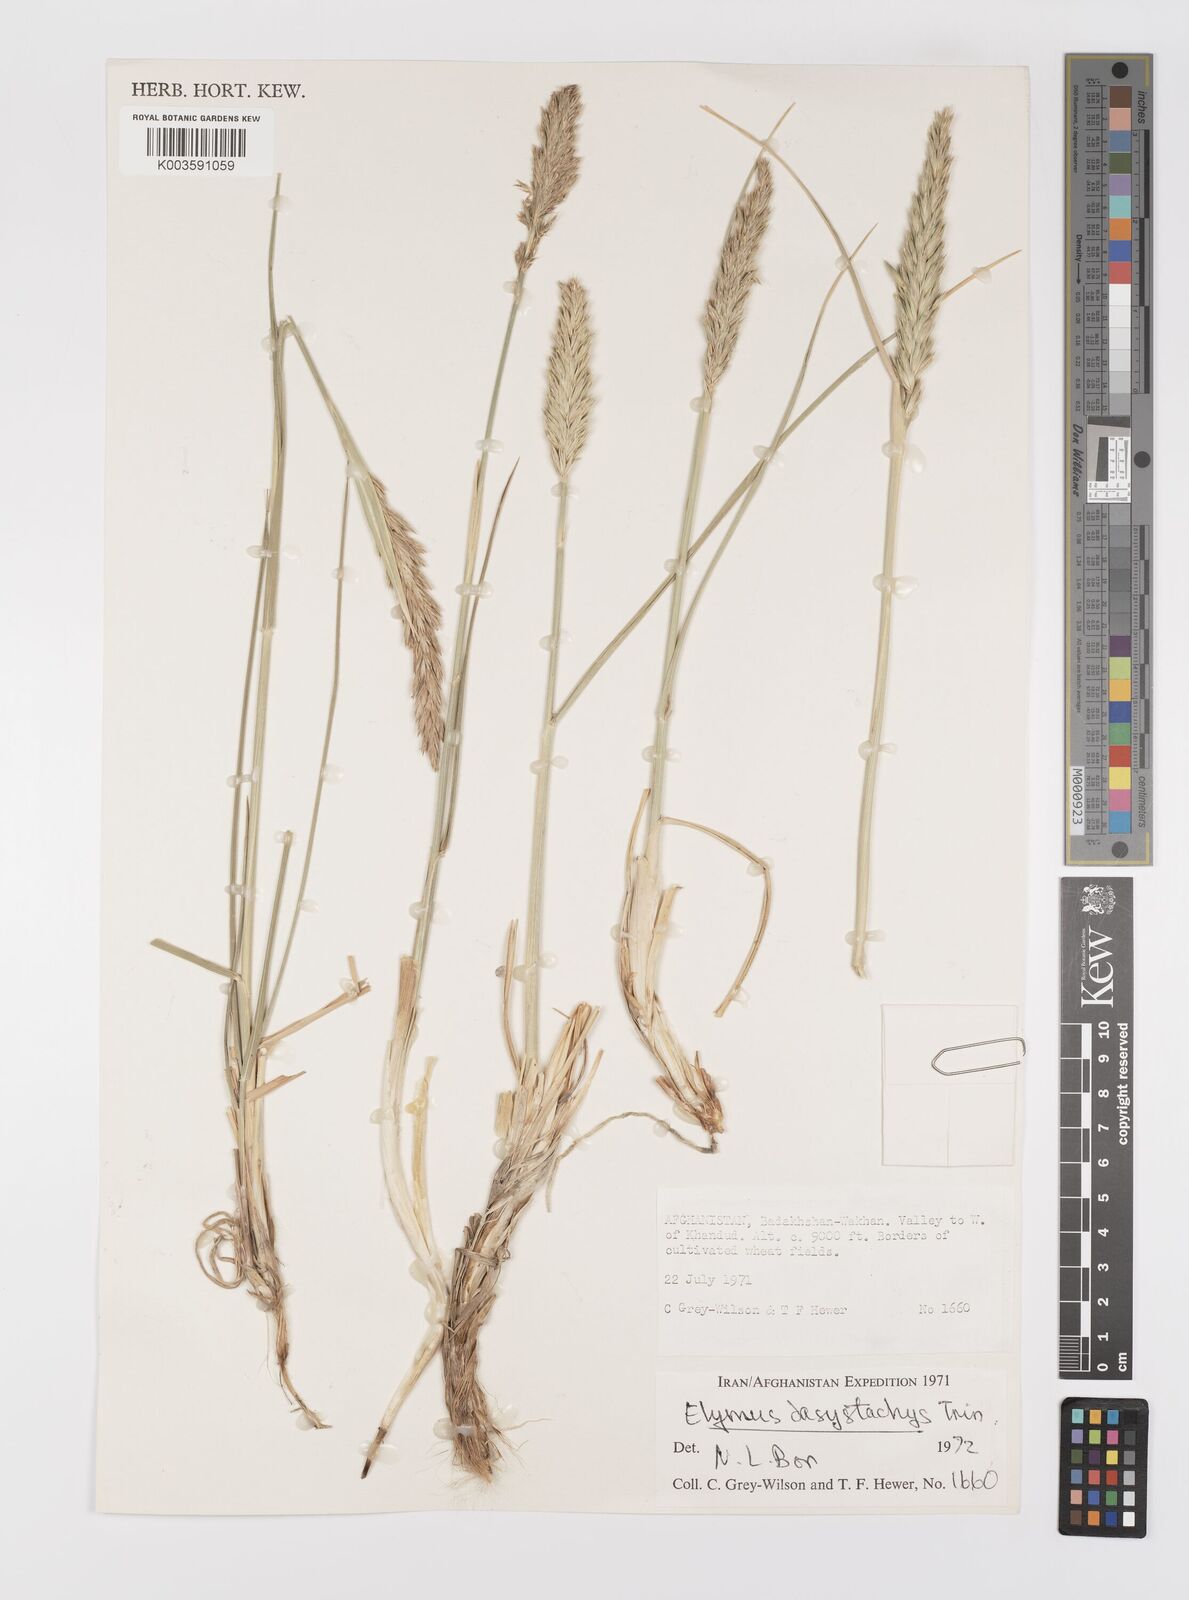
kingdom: Plantae
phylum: Tracheophyta
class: Liliopsida
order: Poales
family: Poaceae
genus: Leymus
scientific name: Leymus secalinus
